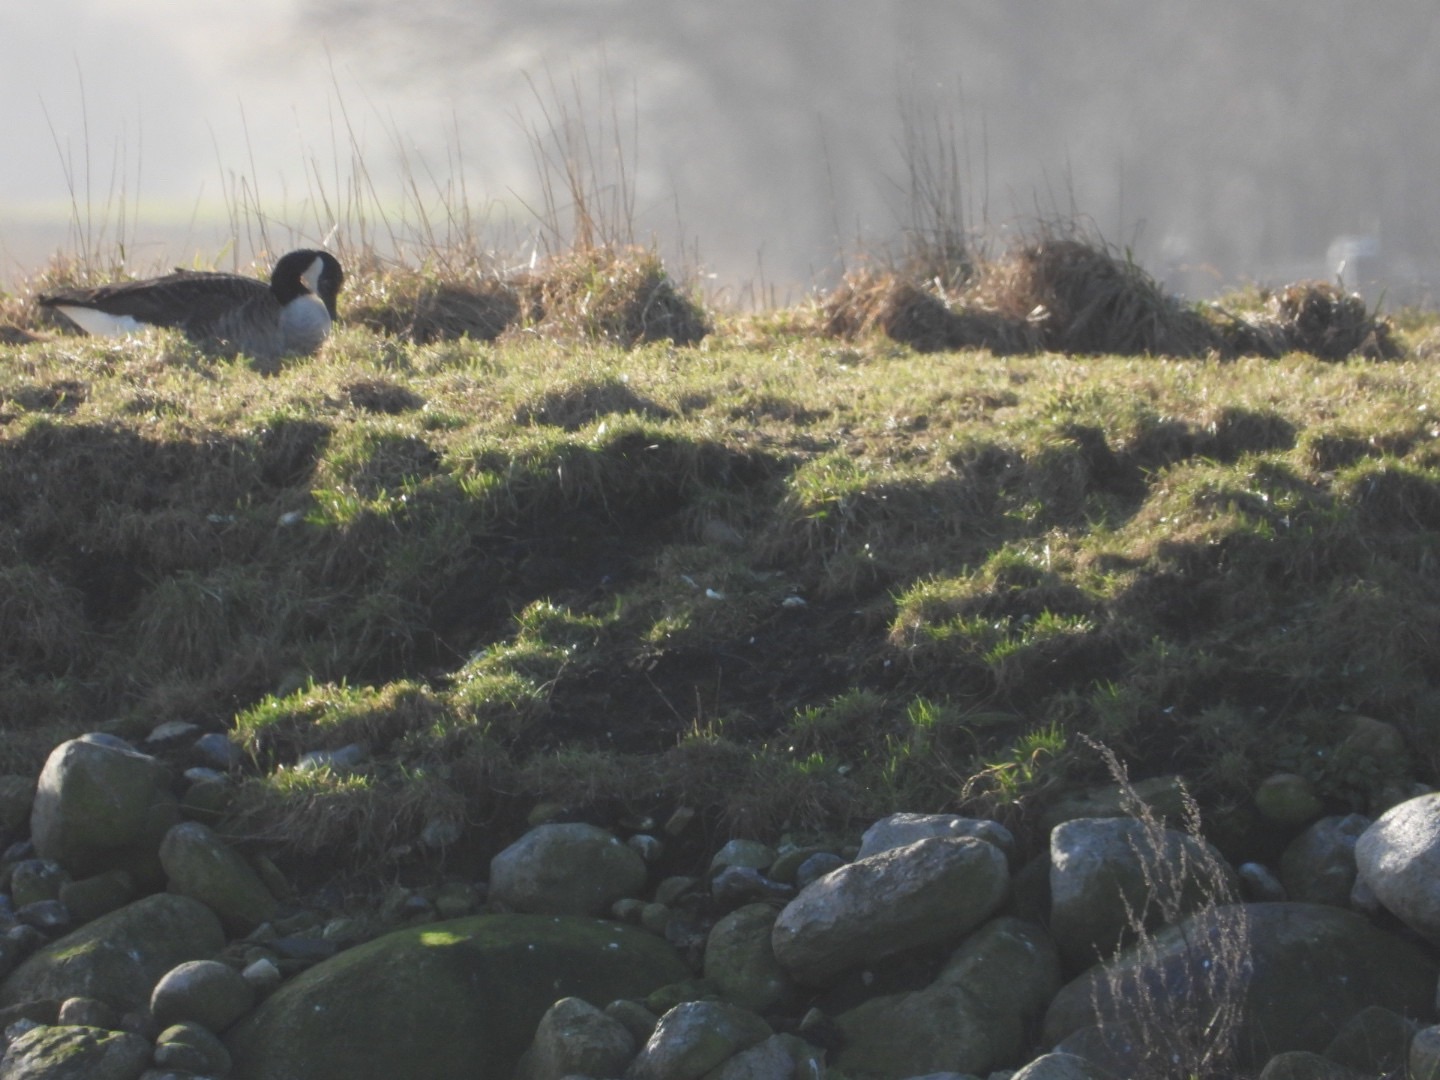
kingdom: Animalia
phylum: Chordata
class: Aves
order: Anseriformes
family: Anatidae
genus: Branta
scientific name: Branta canadensis
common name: Canadagås
